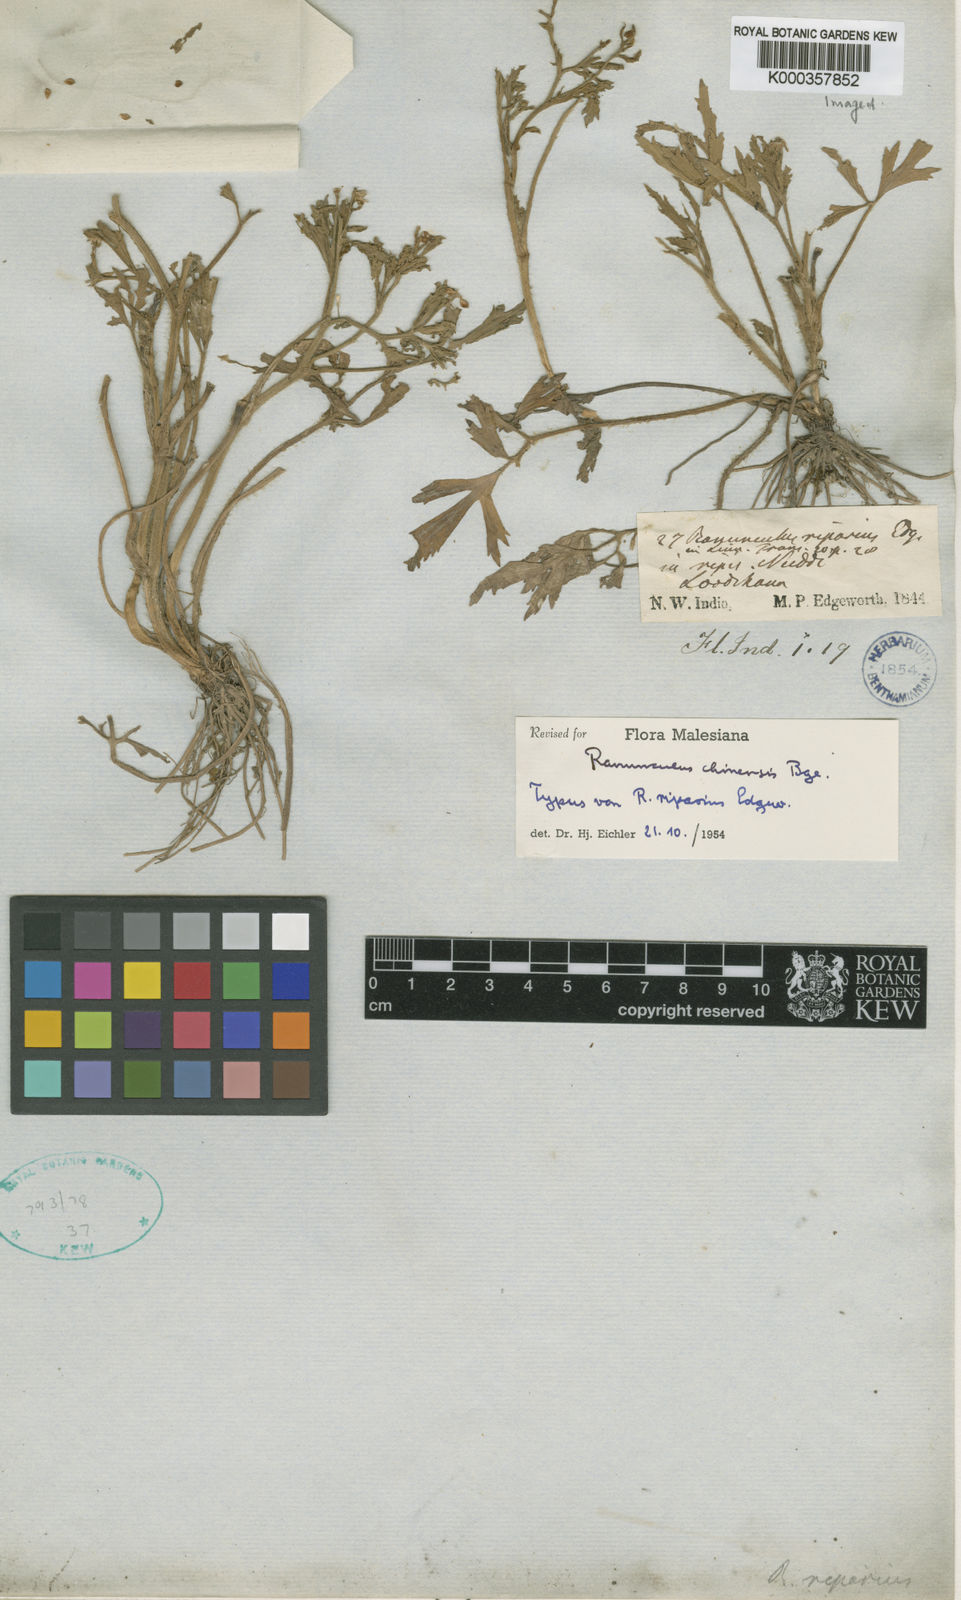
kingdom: Plantae
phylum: Tracheophyta
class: Magnoliopsida
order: Ranunculales
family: Ranunculaceae
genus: Ranunculus
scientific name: Ranunculus chinensis
